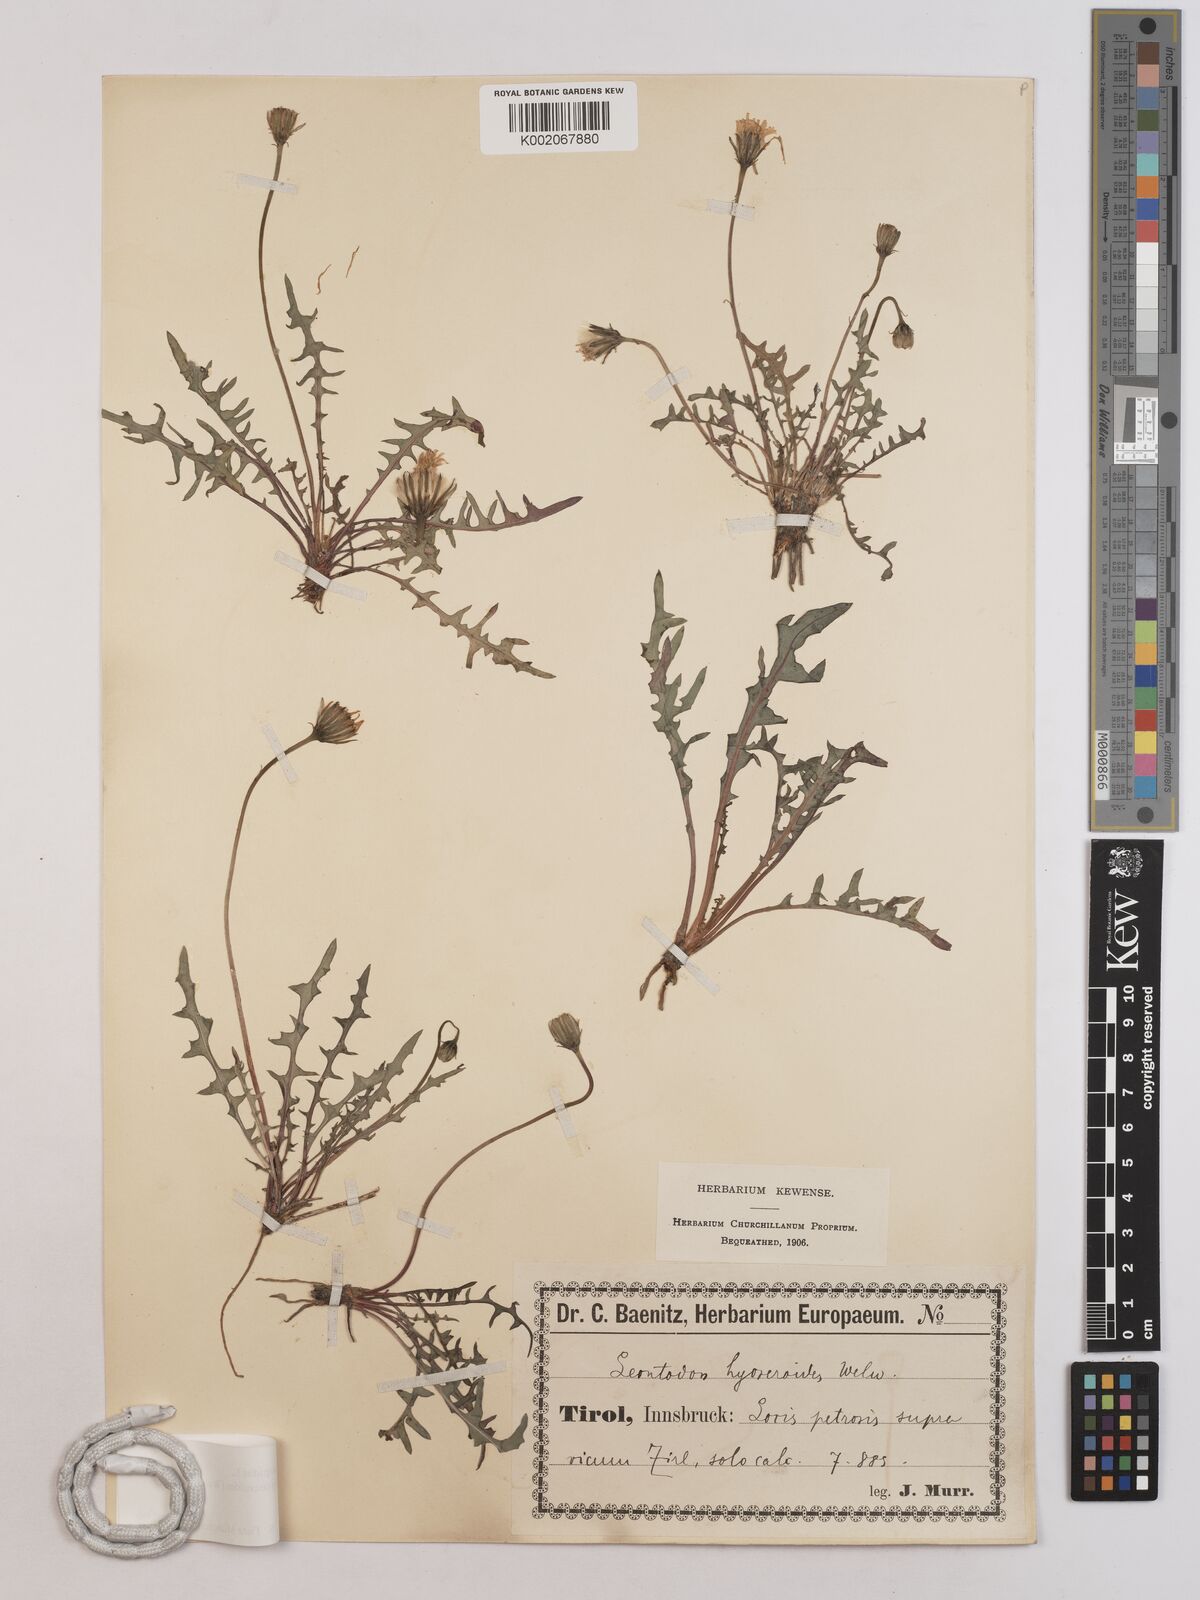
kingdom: Plantae
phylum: Tracheophyta
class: Magnoliopsida
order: Asterales
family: Asteraceae
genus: Leontodon
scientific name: Leontodon hispidus
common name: Rough hawkbit
